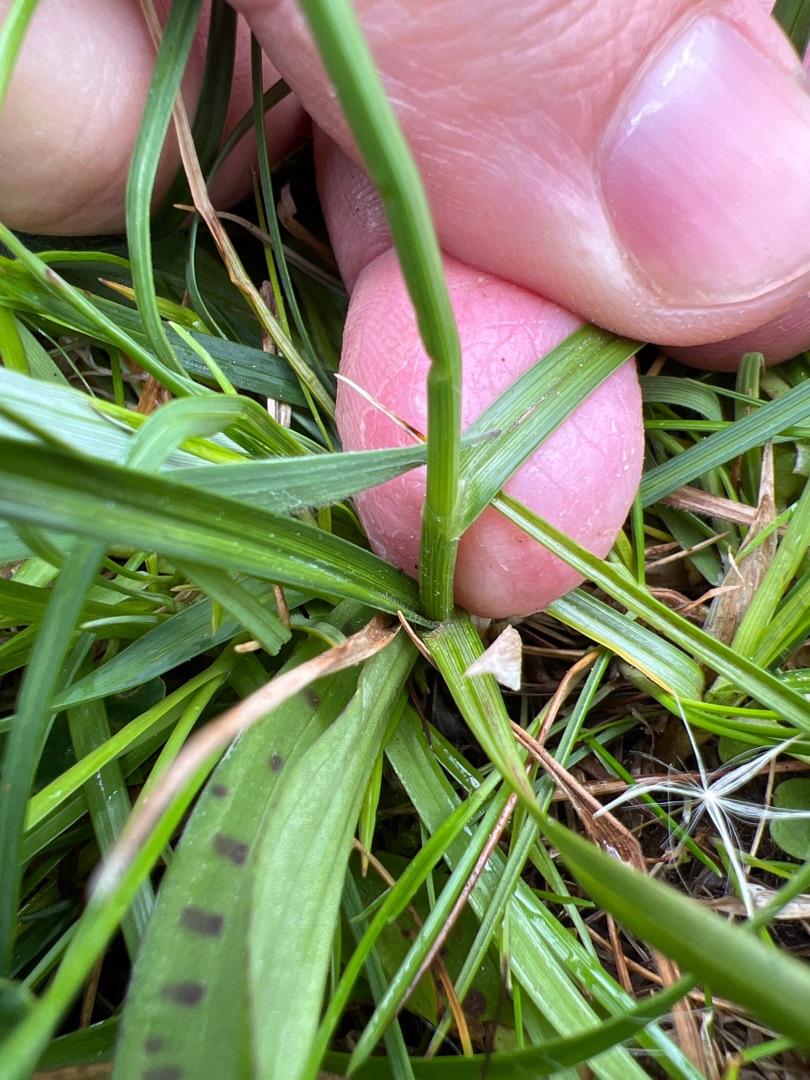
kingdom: Plantae
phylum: Tracheophyta
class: Liliopsida
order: Poales
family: Cyperaceae
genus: Carex
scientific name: Carex disticha
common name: Toradet star
